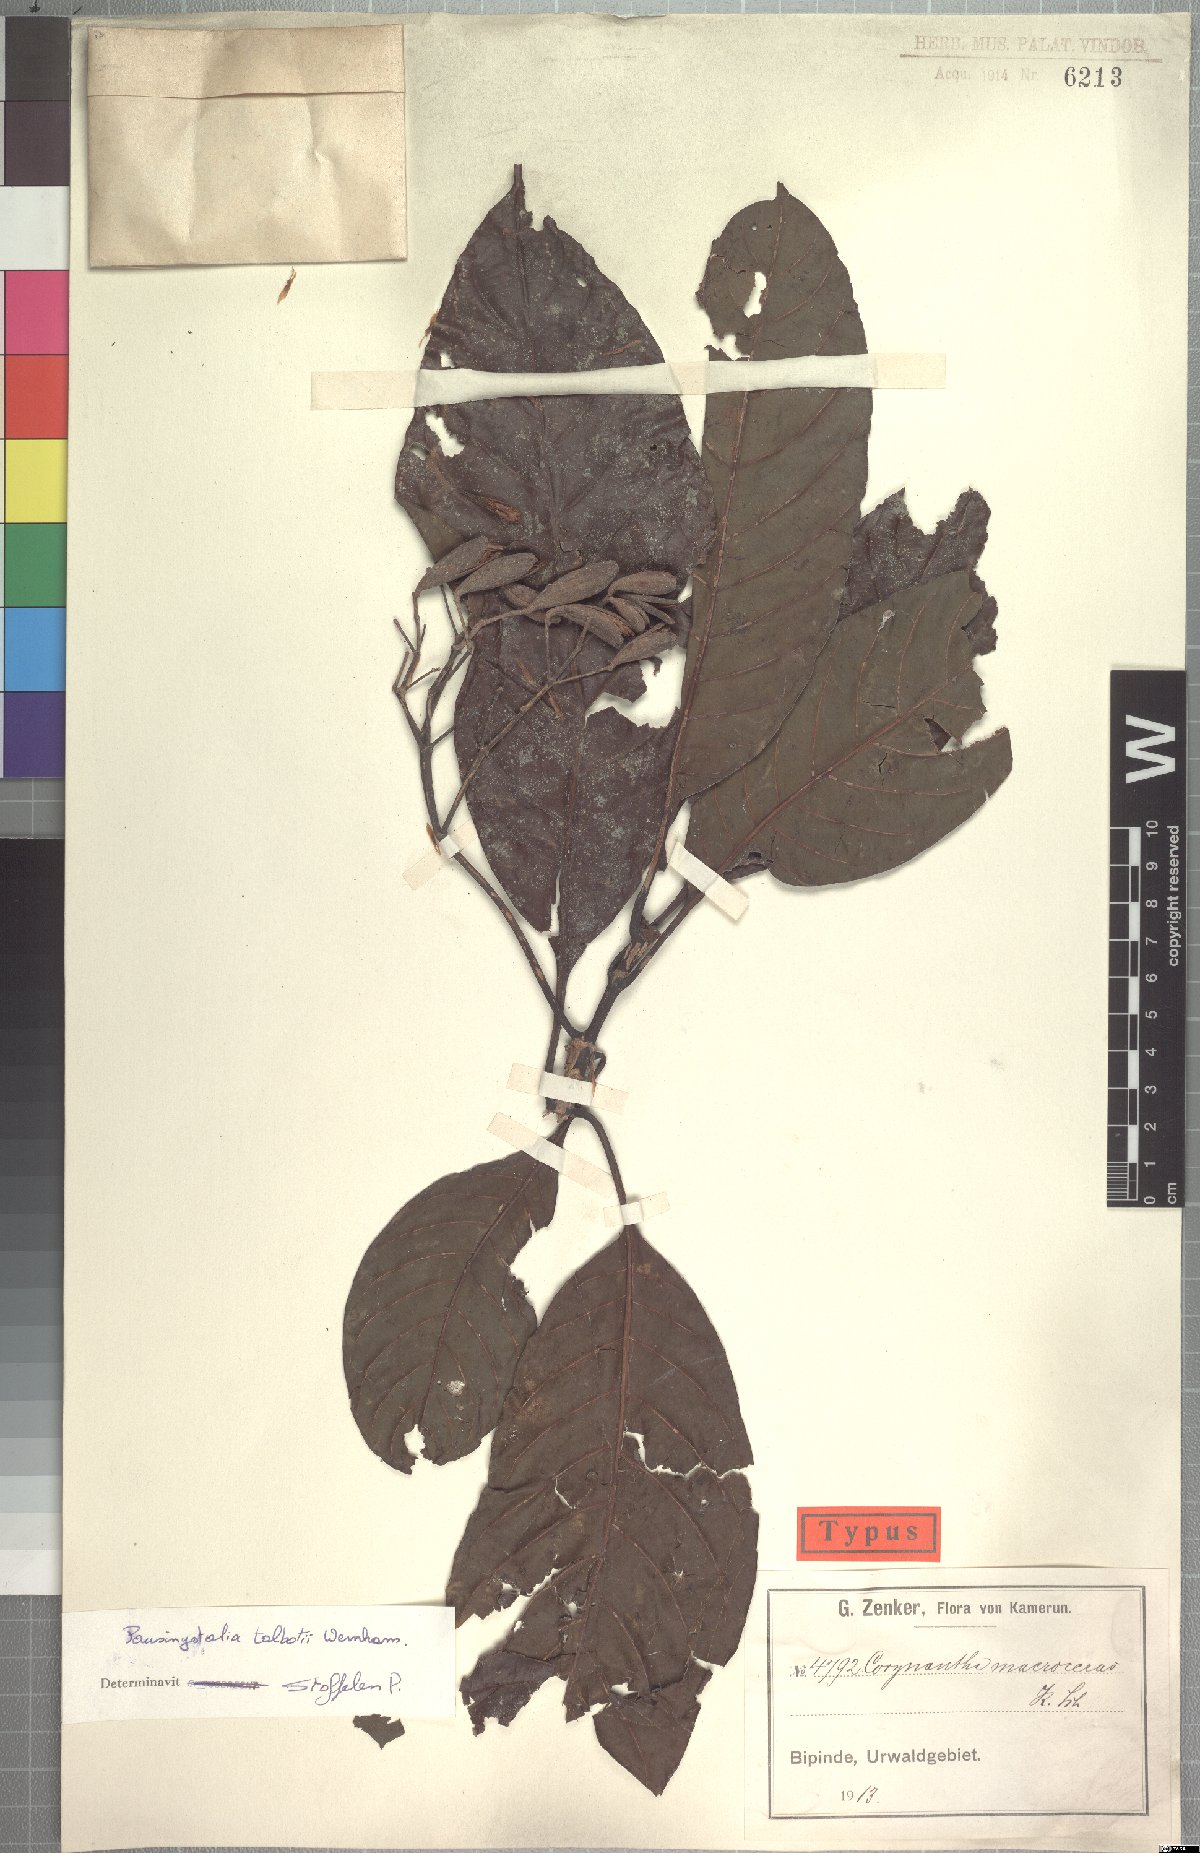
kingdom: Plantae
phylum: Tracheophyta
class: Magnoliopsida
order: Gentianales
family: Rubiaceae
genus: Corynanthe
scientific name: Corynanthe talbotii
